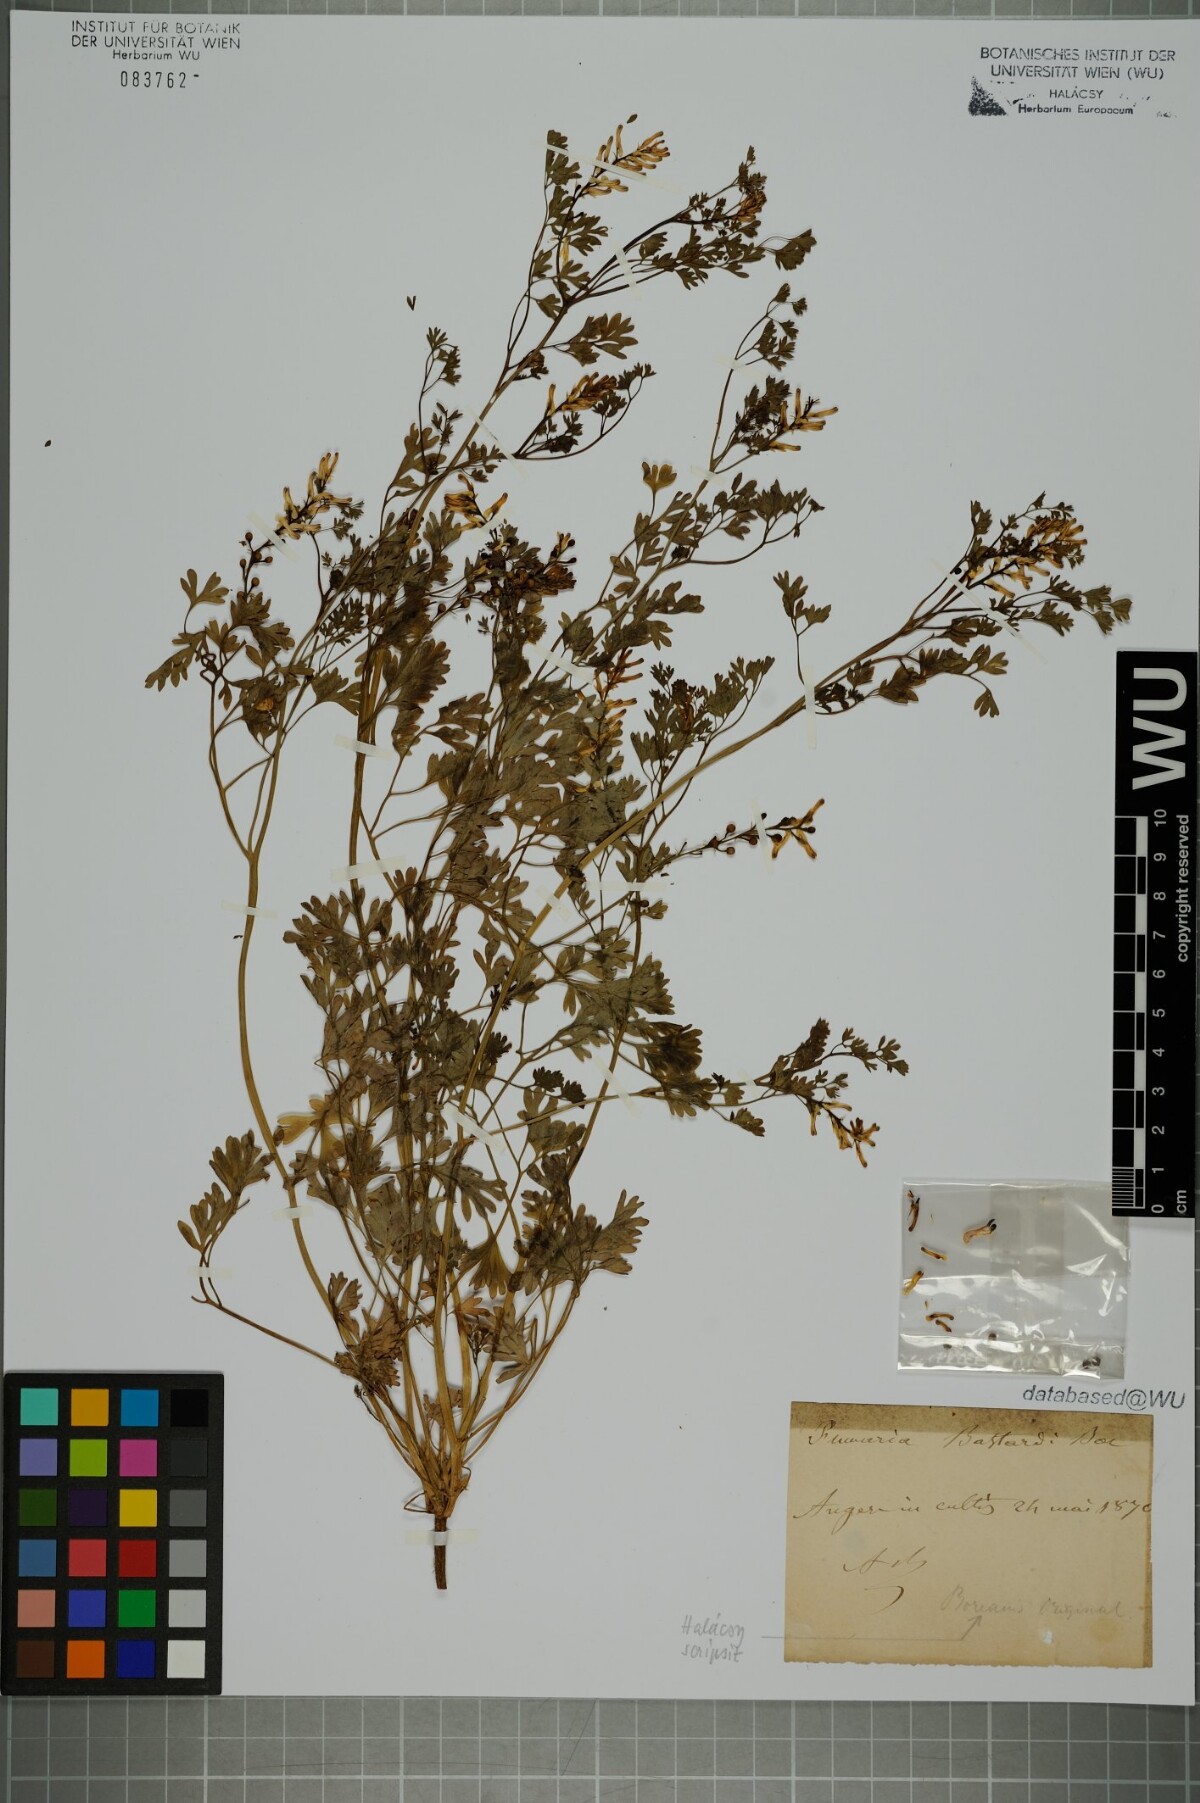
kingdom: Plantae
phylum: Tracheophyta
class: Magnoliopsida
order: Ranunculales
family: Papaveraceae
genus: Fumaria
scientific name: Fumaria bastardii
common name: Tall ramping-fumitory
